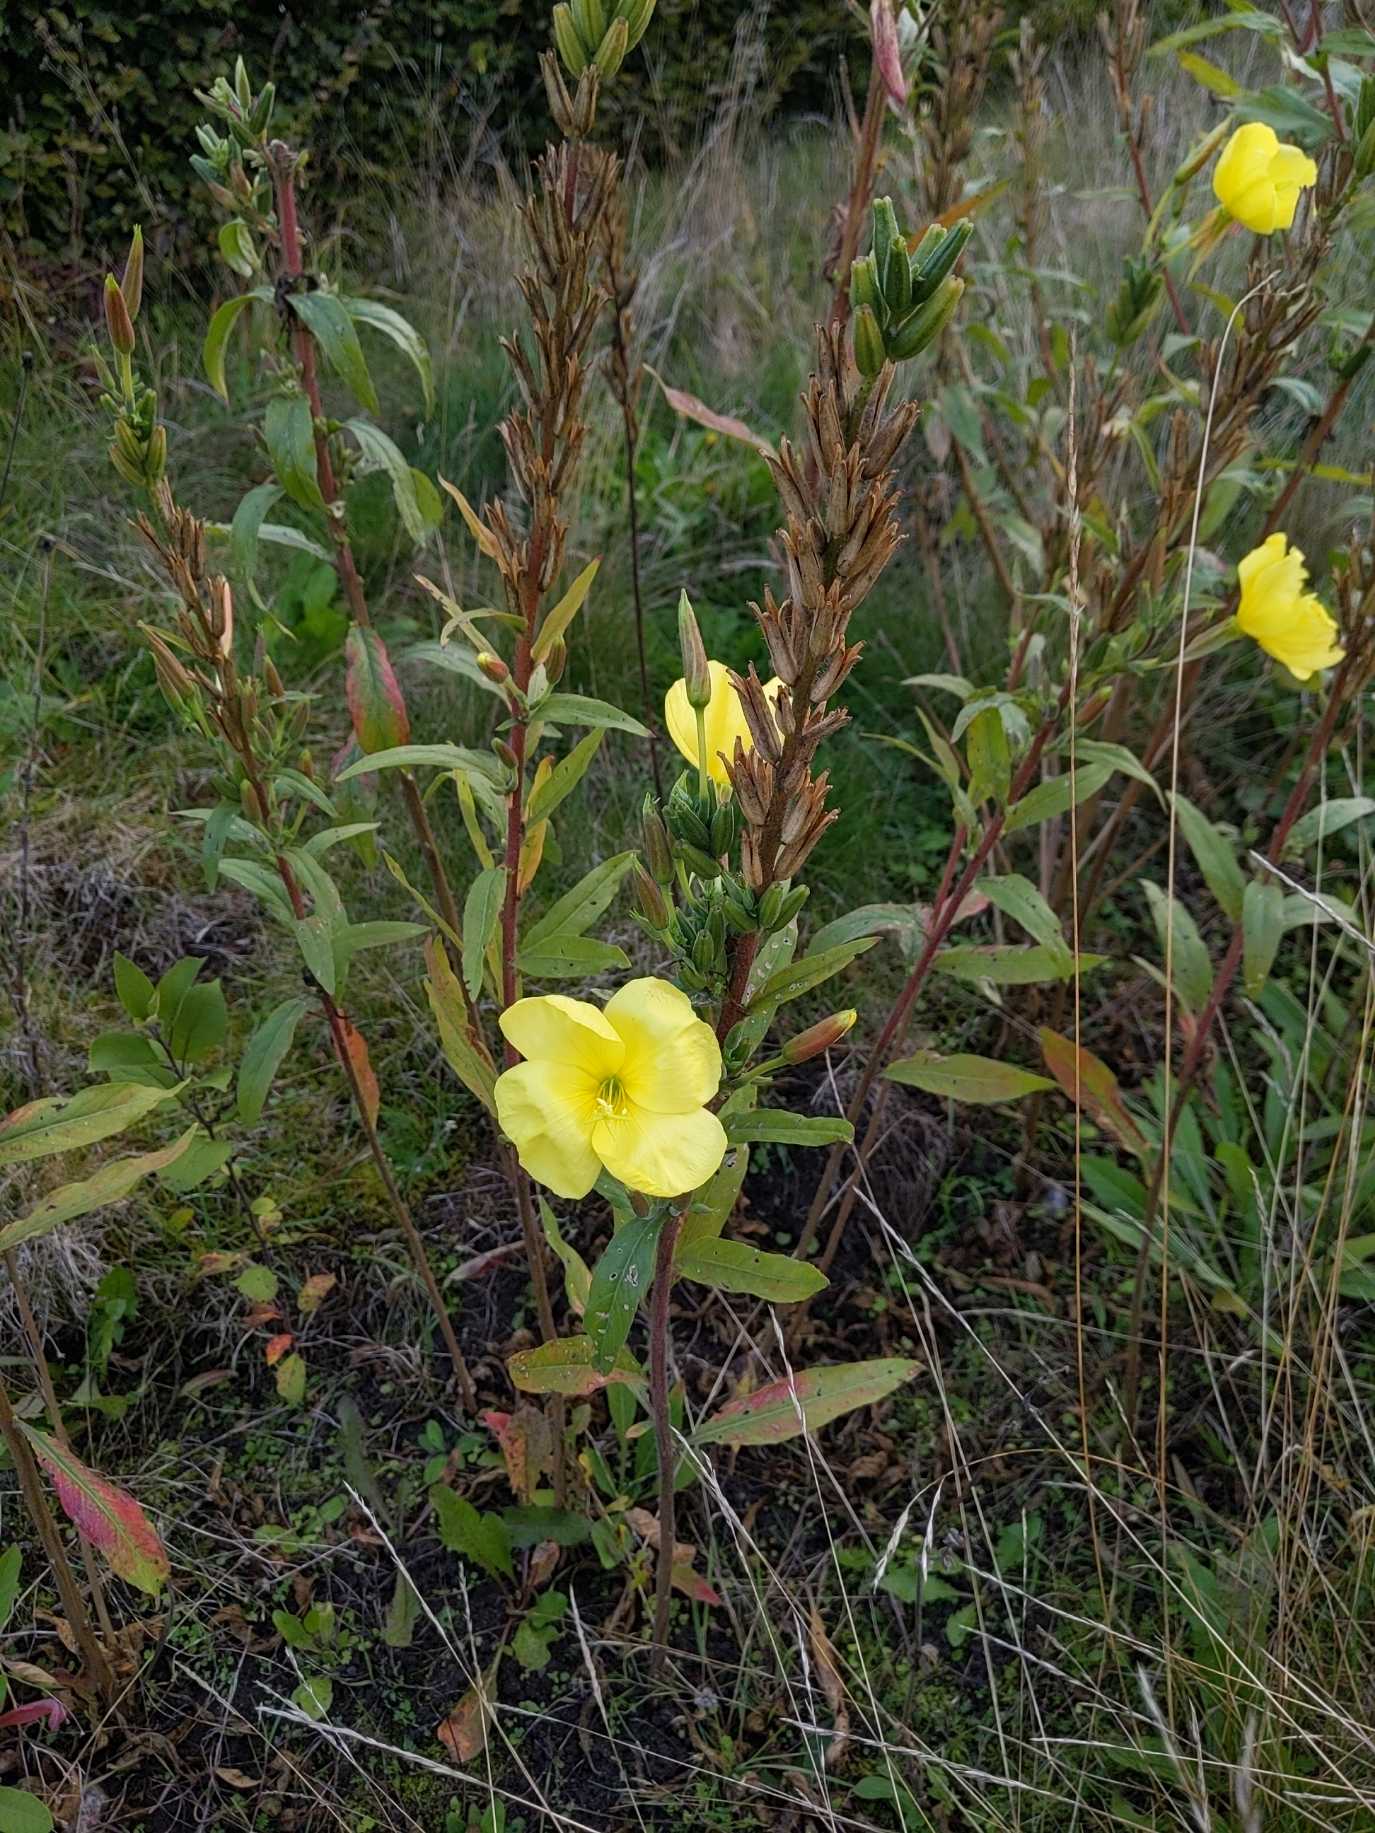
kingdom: Plantae
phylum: Tracheophyta
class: Magnoliopsida
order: Myrtales
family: Onagraceae
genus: Oenothera
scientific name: Oenothera glazioviana
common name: Kæmpe-natlys
